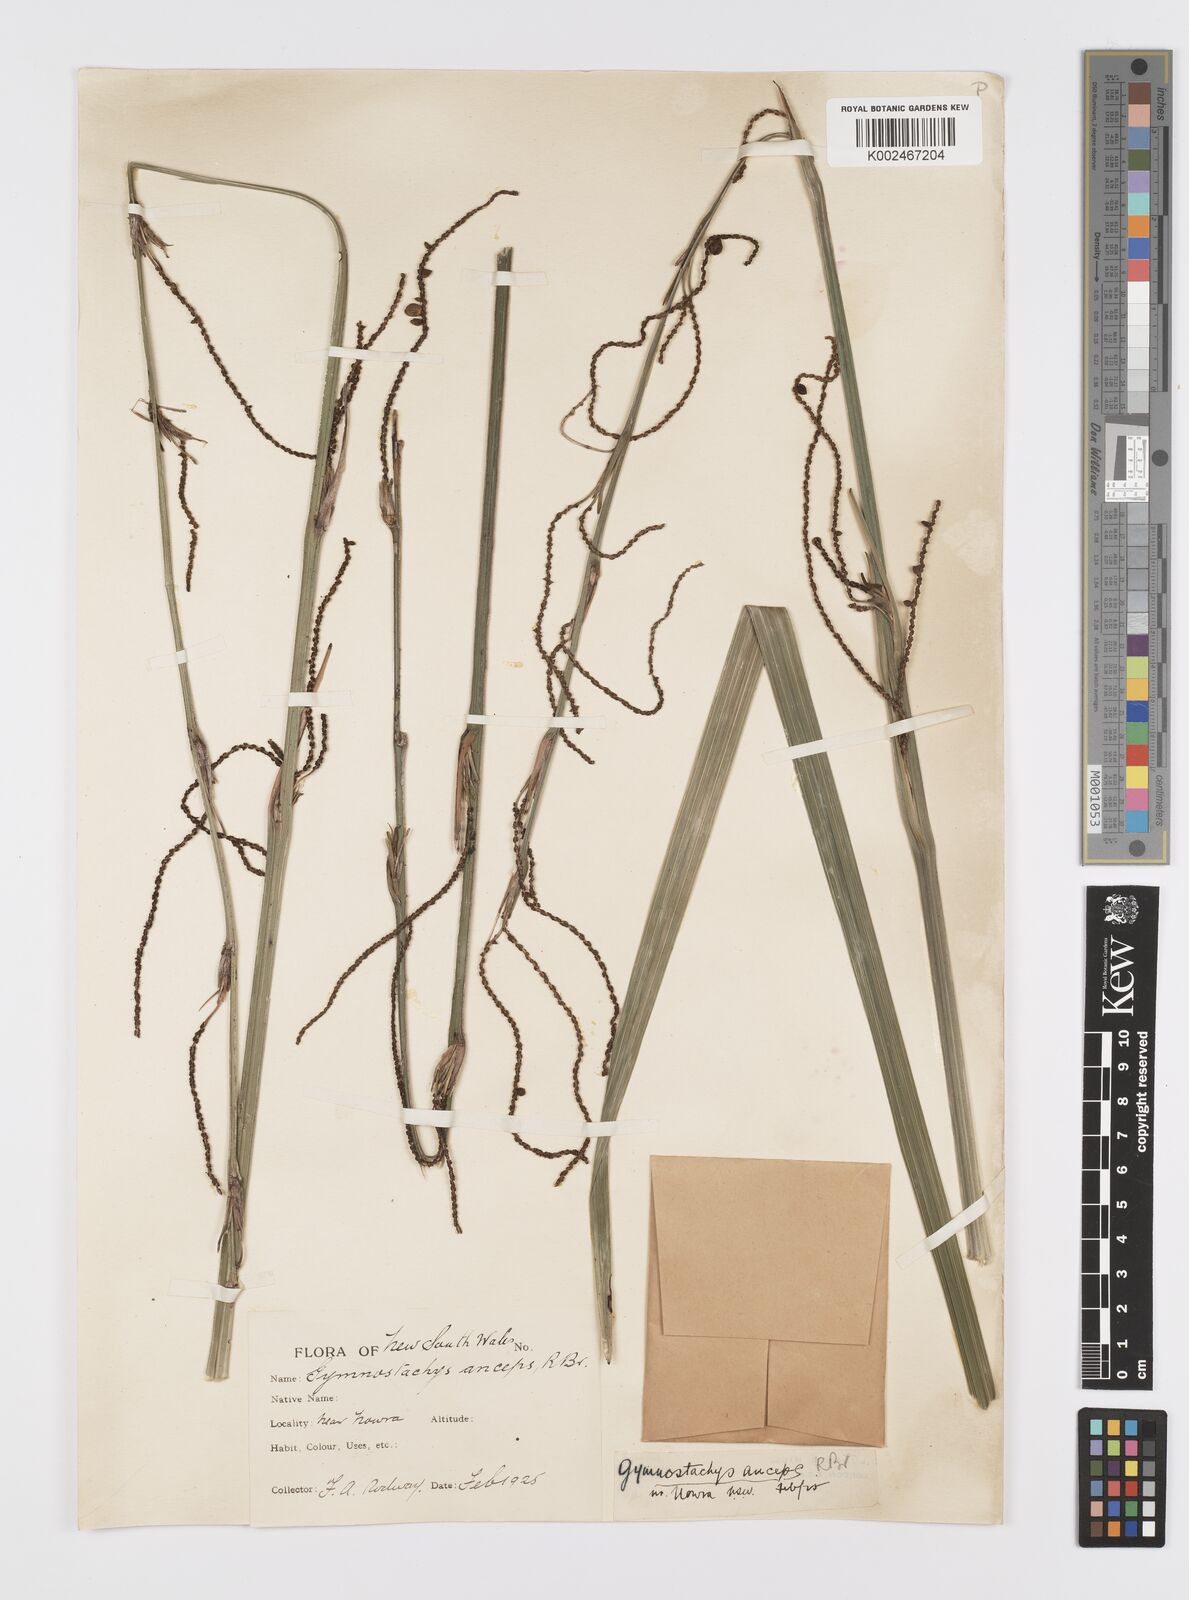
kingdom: Plantae
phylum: Tracheophyta
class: Liliopsida
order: Alismatales
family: Araceae
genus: Gymnostachys
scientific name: Gymnostachys anceps
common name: Settler's-flax
